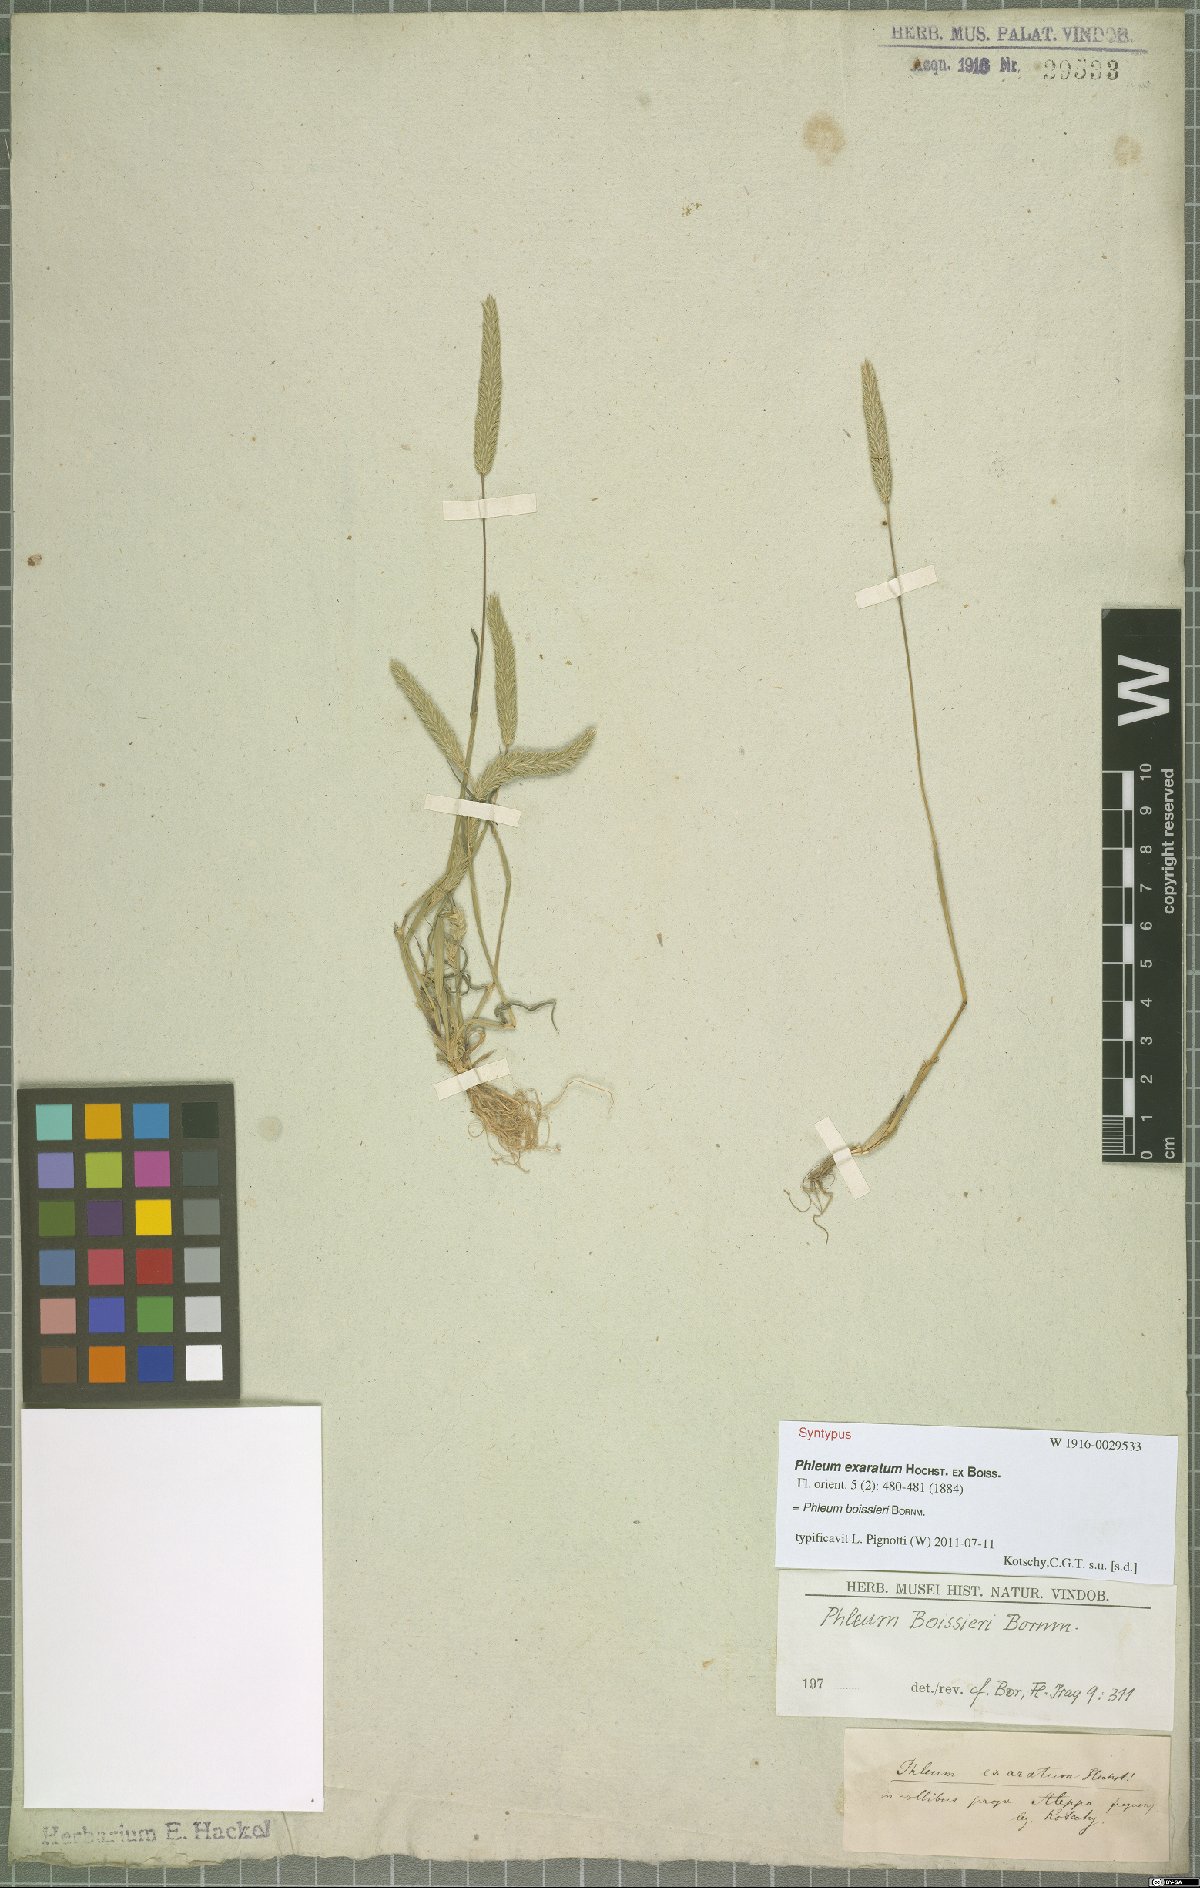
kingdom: Plantae
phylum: Tracheophyta
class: Liliopsida
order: Poales
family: Poaceae
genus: Phleum
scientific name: Phleum boissieri
